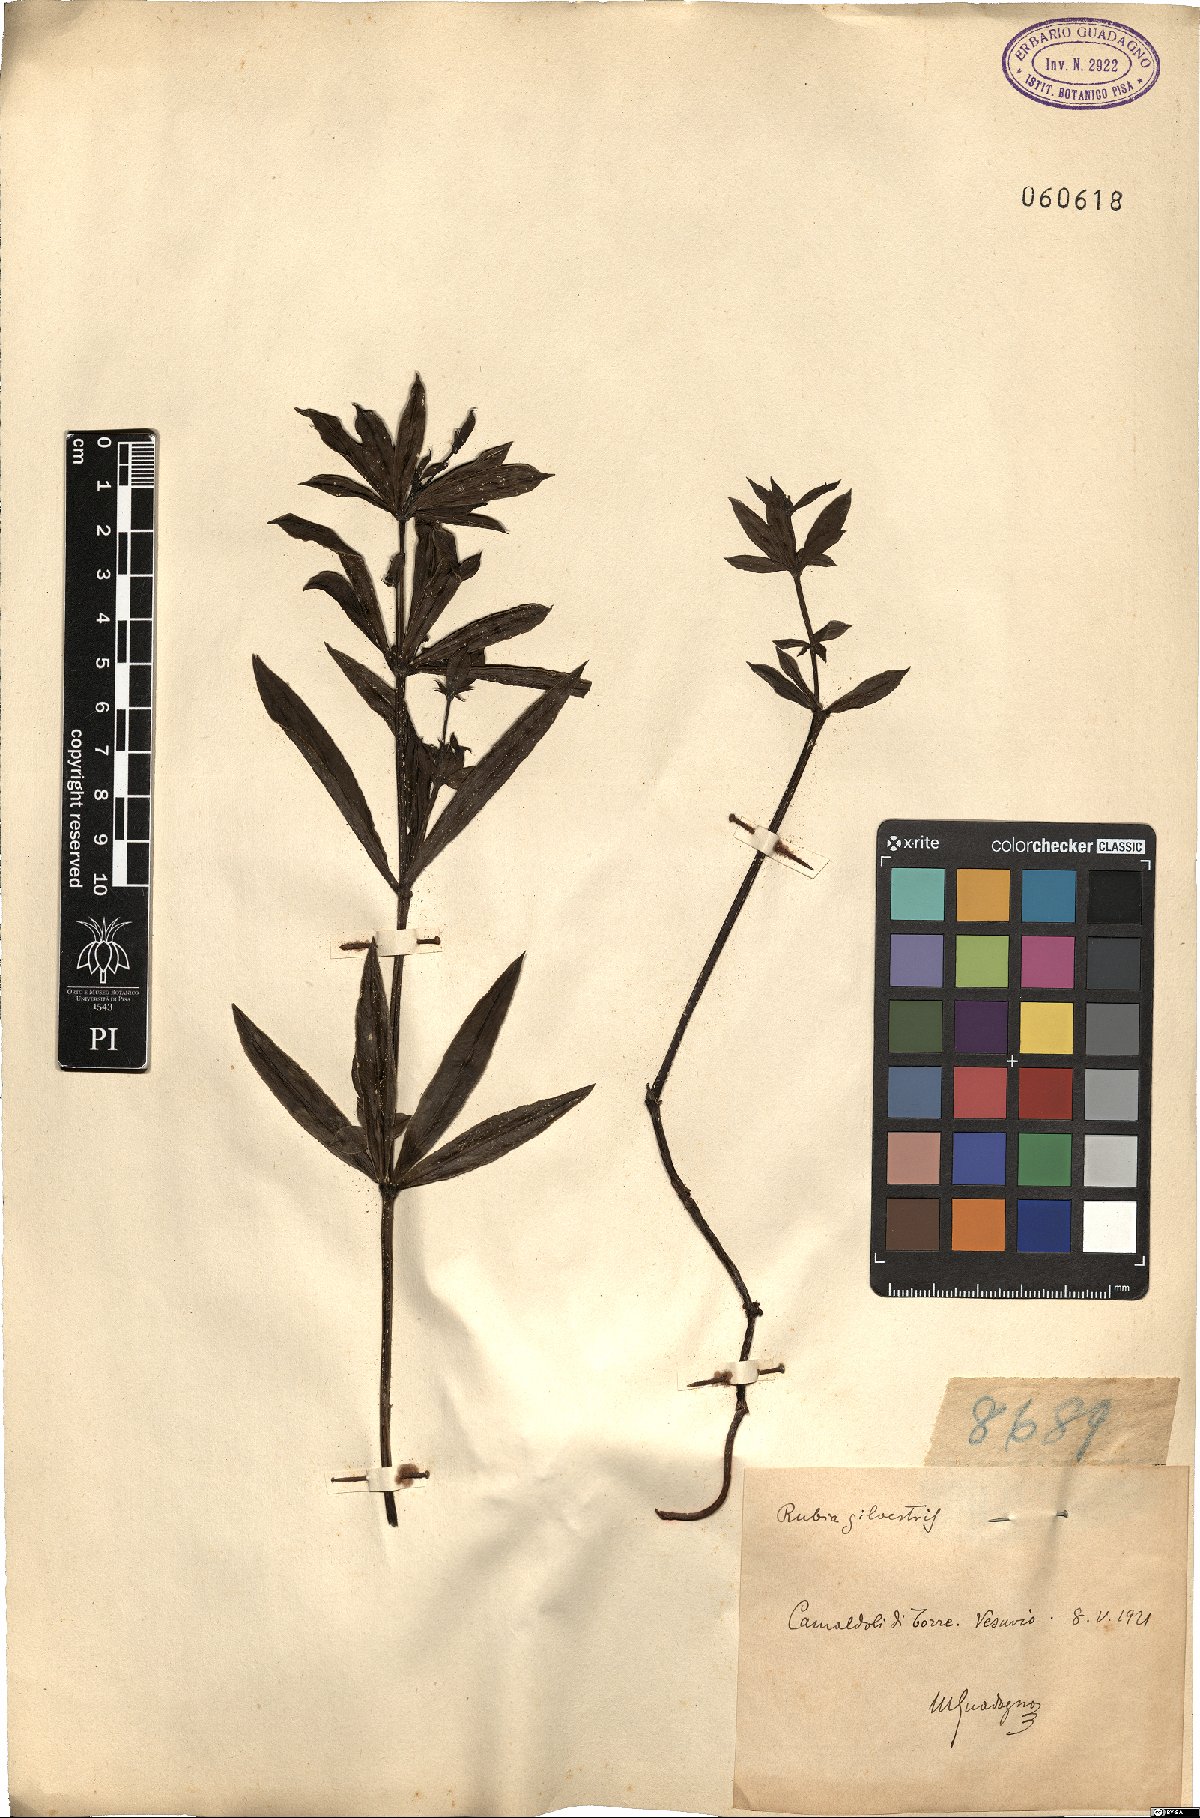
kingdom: Plantae
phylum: Tracheophyta
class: Magnoliopsida
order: Gentianales
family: Rubiaceae
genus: Rubia
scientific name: Rubia tinctorum
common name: Dyer's madder
